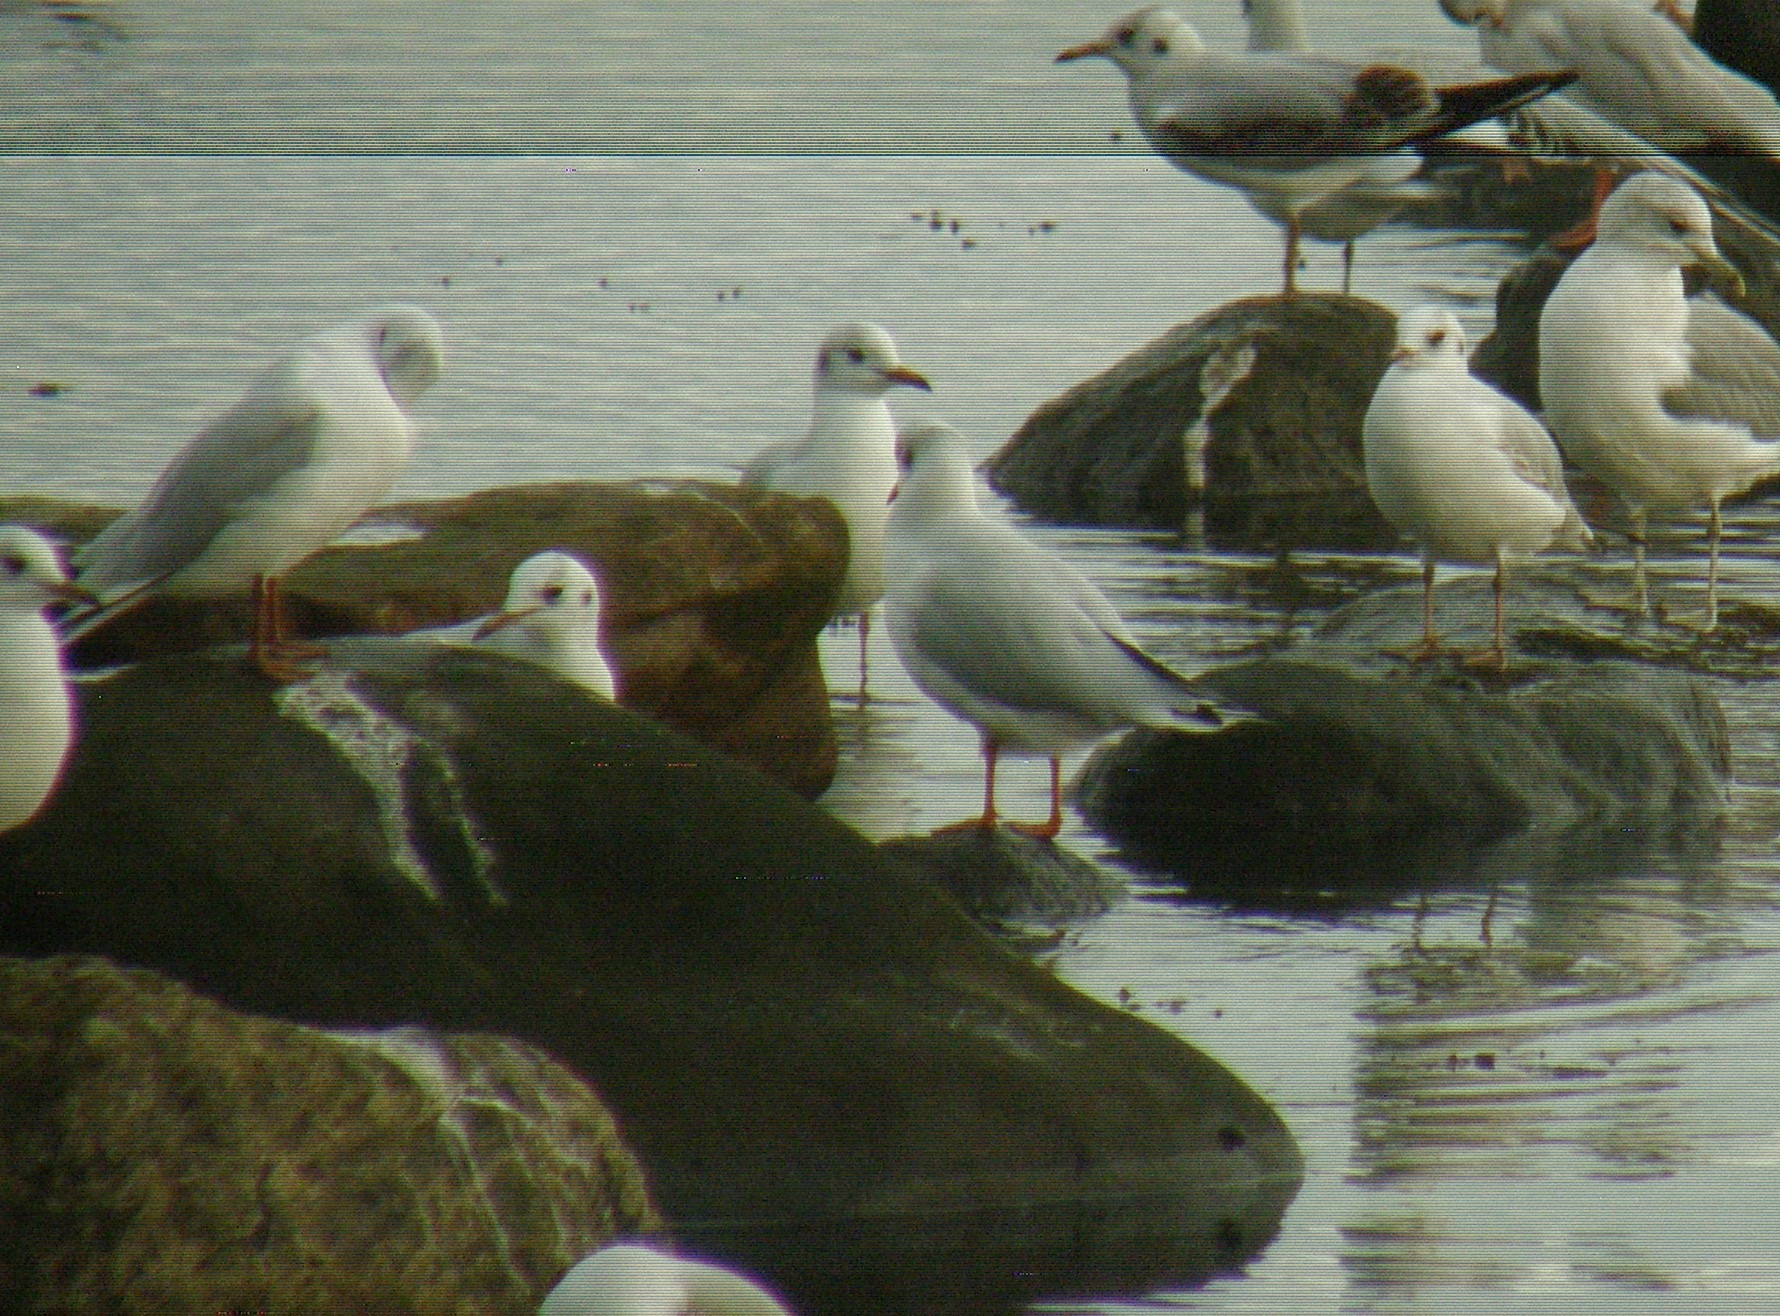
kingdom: Animalia
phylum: Chordata
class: Aves
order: Charadriiformes
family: Laridae
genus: Chroicocephalus
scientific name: Chroicocephalus ridibundus
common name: Hættemåge
